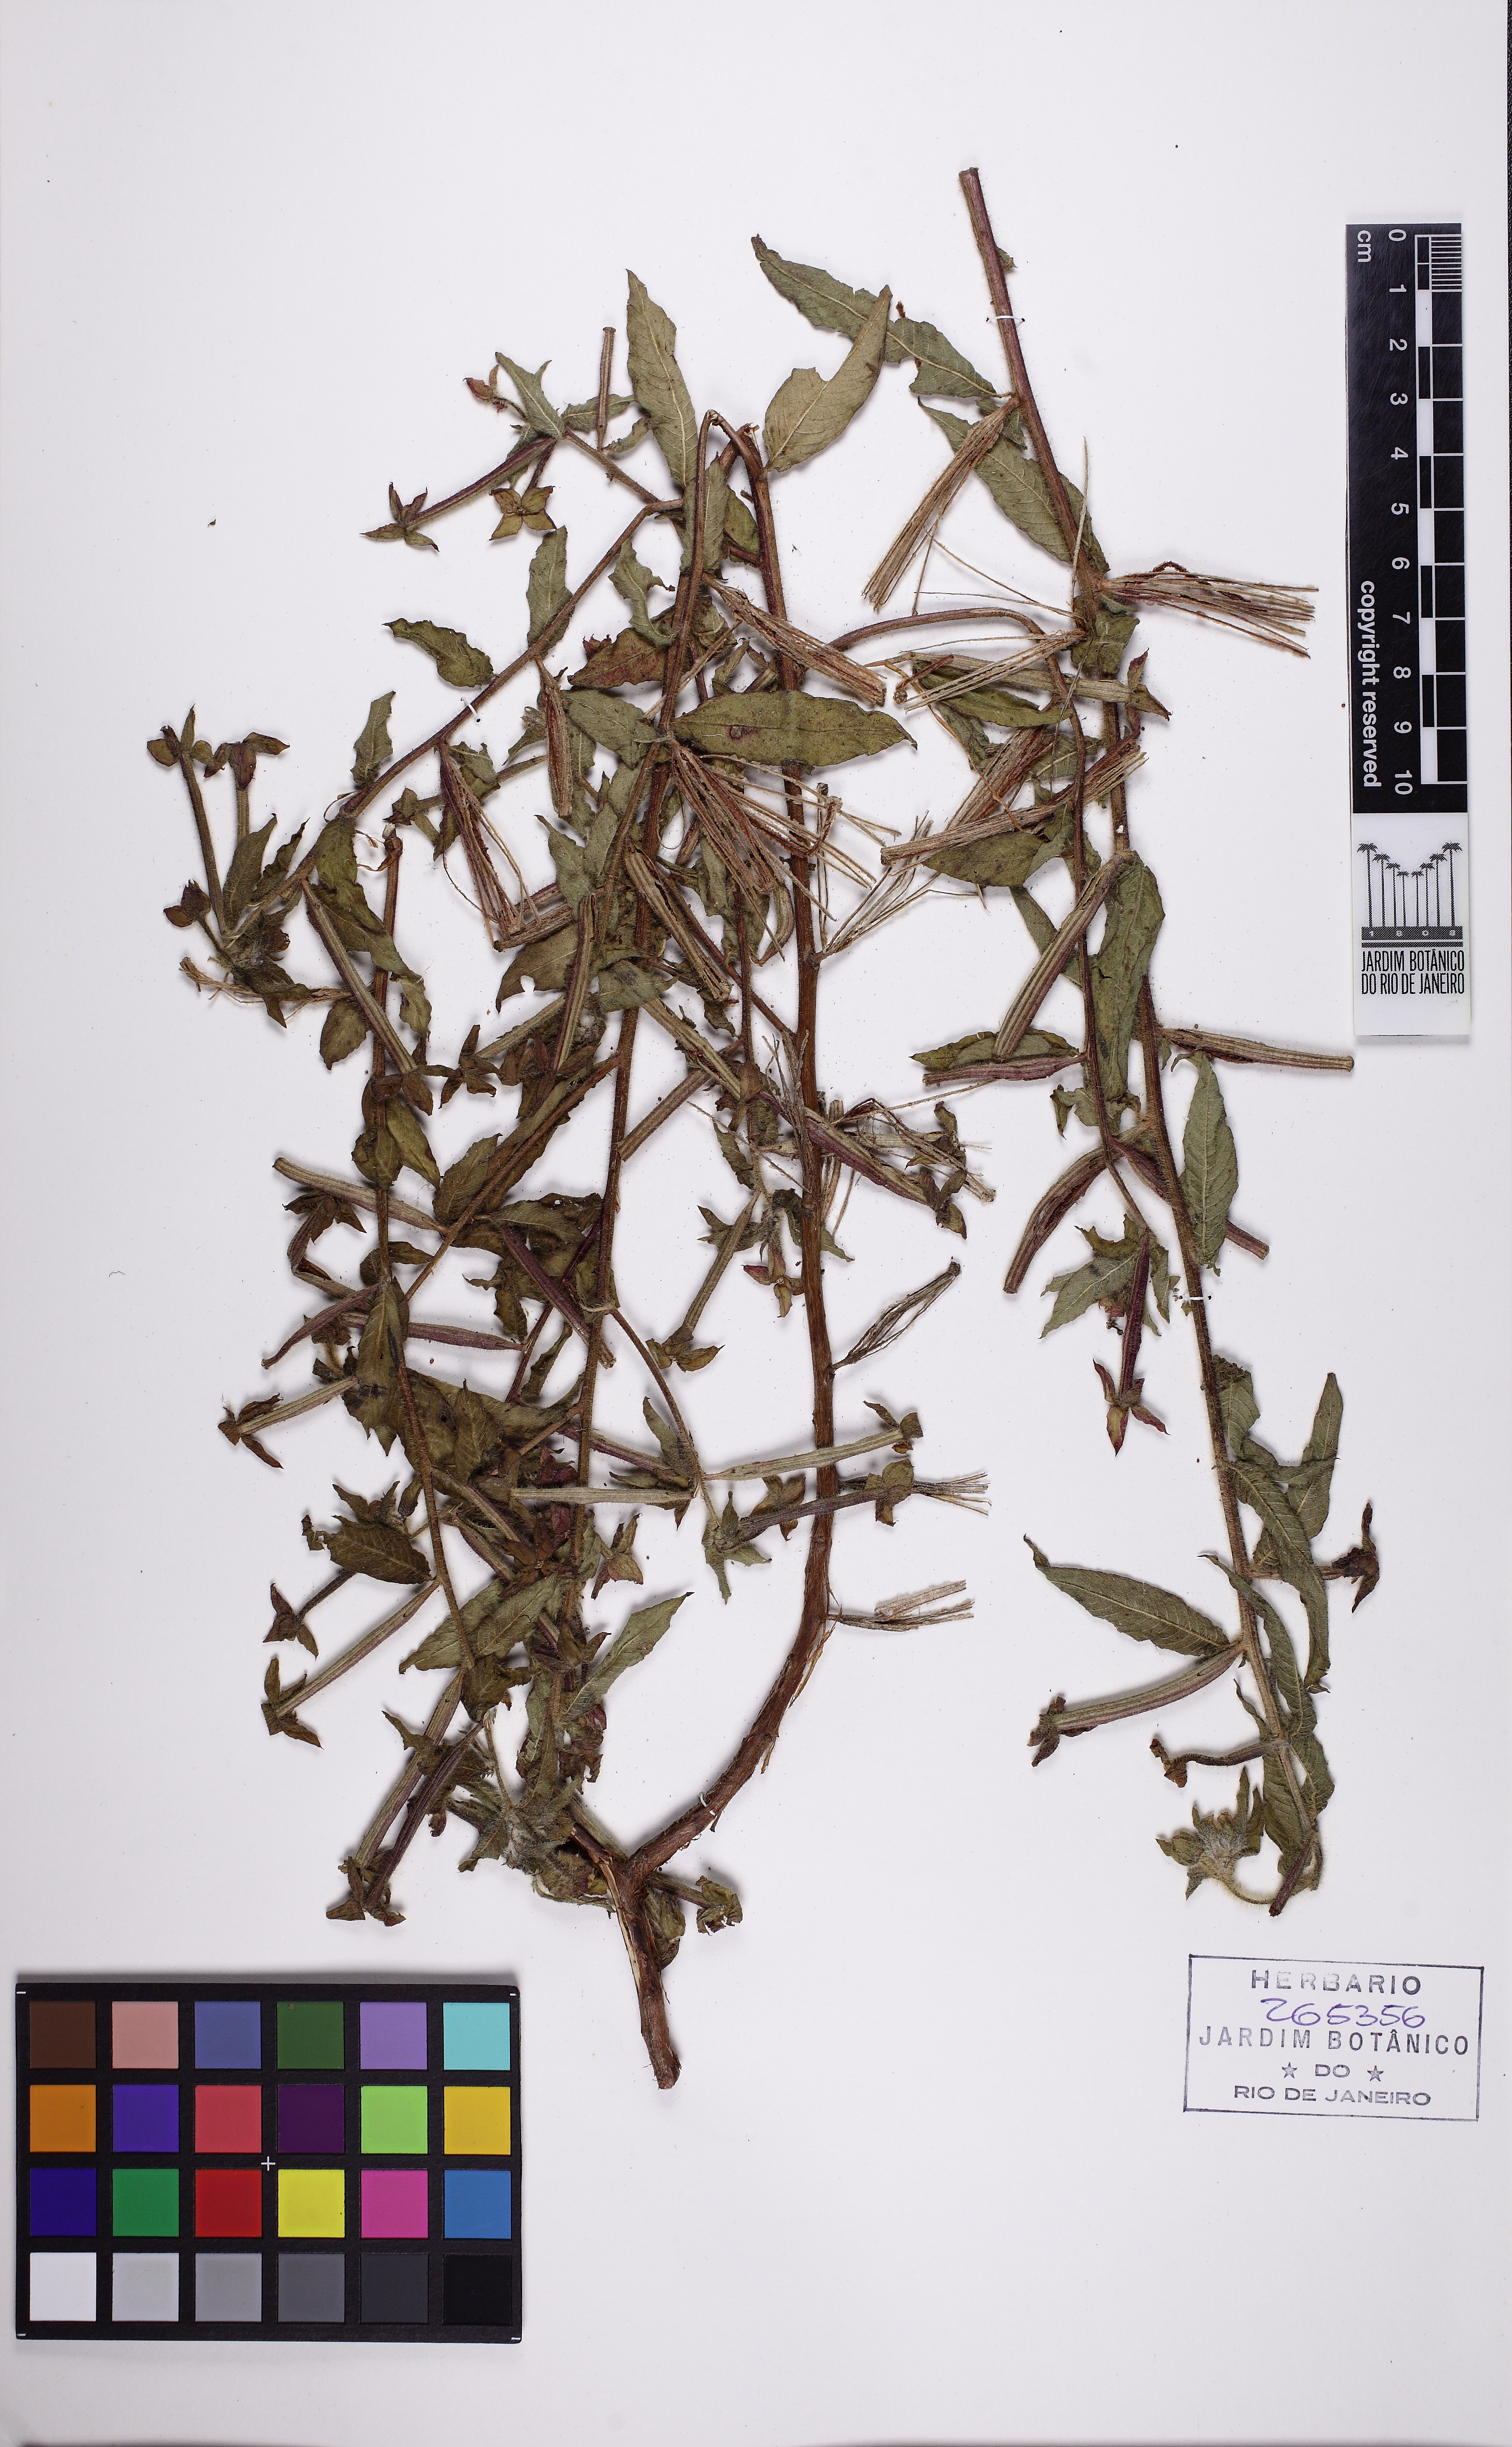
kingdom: Plantae
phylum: Tracheophyta
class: Magnoliopsida
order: Myrtales
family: Onagraceae
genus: Ludwigia
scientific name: Ludwigia octovalvis
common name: Water-primrose
